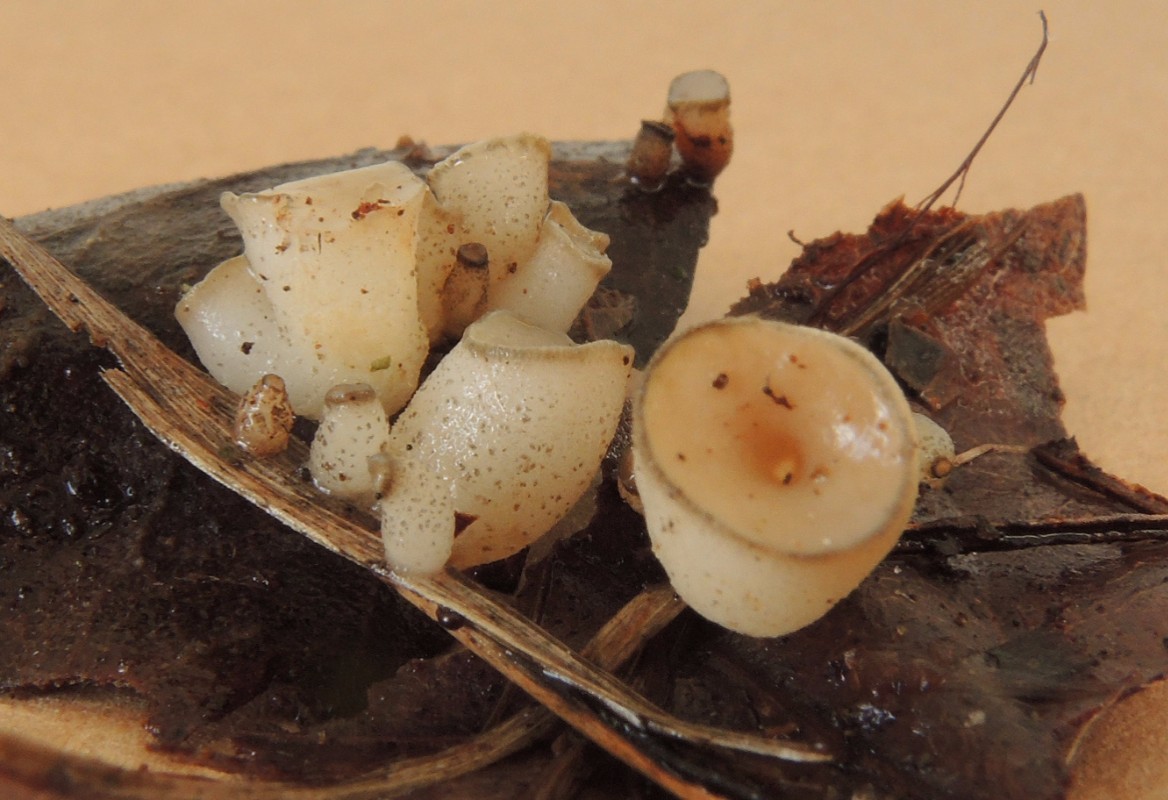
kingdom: Fungi
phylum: Ascomycota
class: Leotiomycetes
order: Helotiales
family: Tricladiaceae
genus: Cudoniella
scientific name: Cudoniella tenuispora
